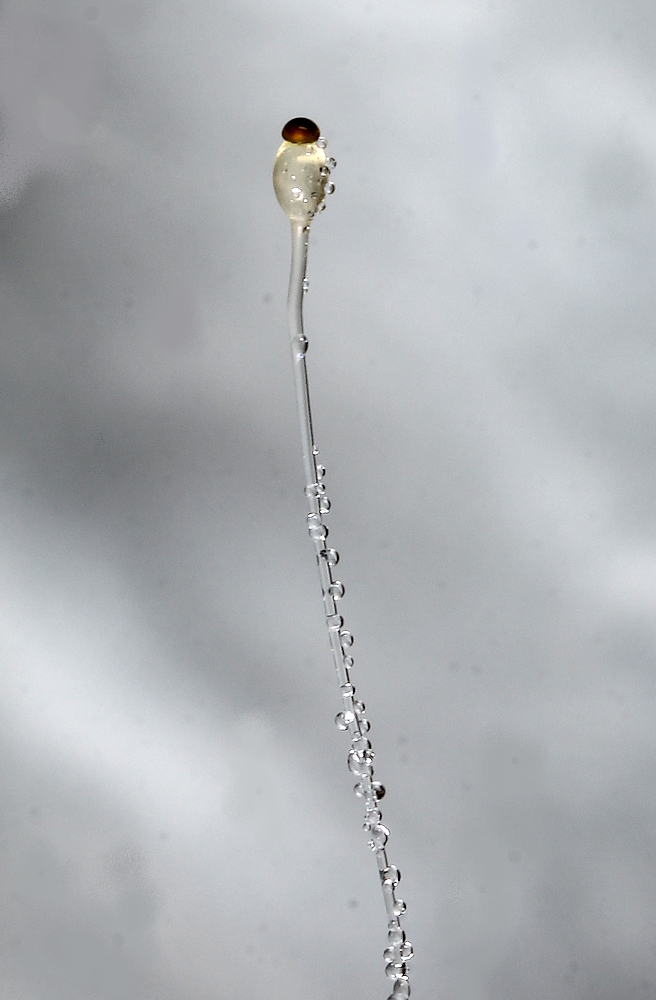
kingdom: Fungi
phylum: Mucoromycota
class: Mucoromycetes
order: Mucorales
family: Pilobolaceae
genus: Pilobolus
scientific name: Pilobolus
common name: boldkaster
